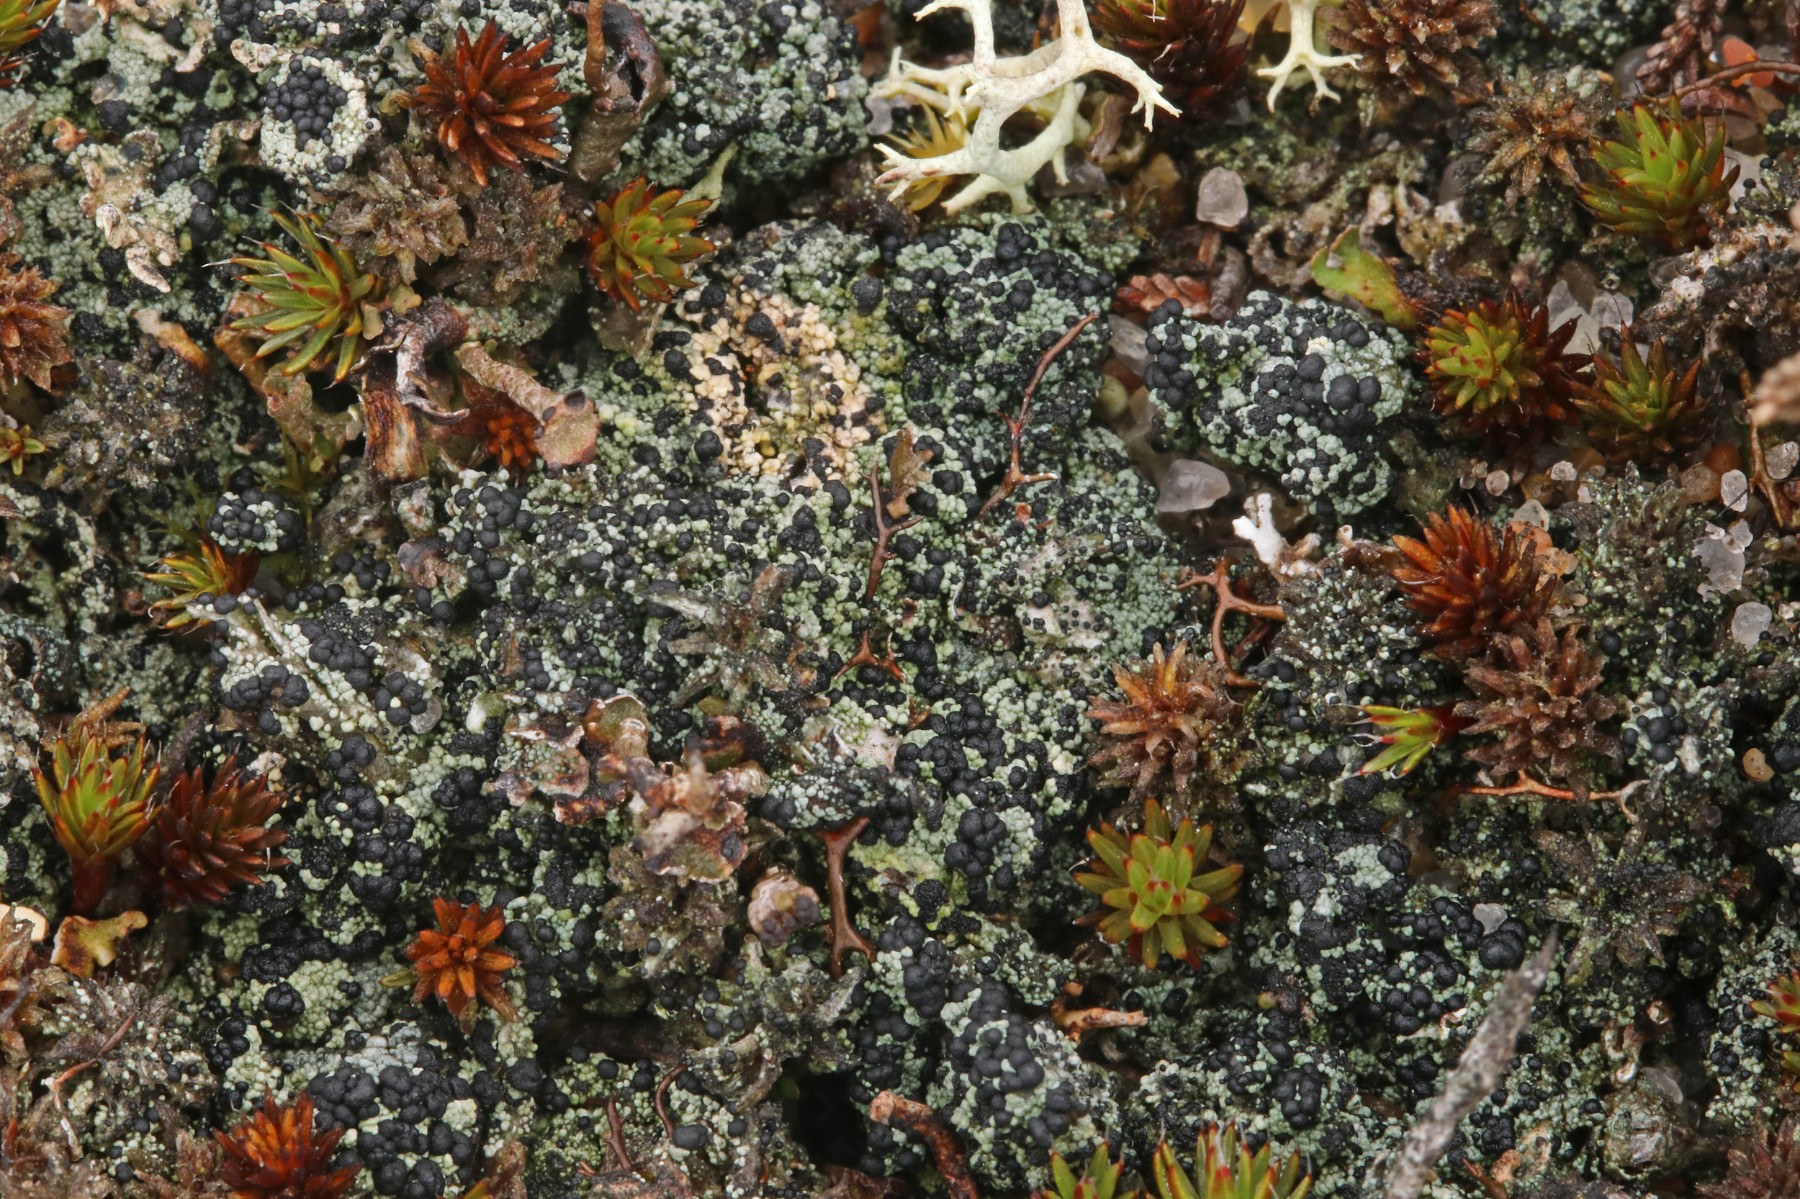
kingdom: Fungi
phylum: Ascomycota
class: Lecanoromycetes
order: Lecanorales
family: Byssolomataceae
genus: Micarea
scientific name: Micarea lignaria
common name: tørve-knaplav
